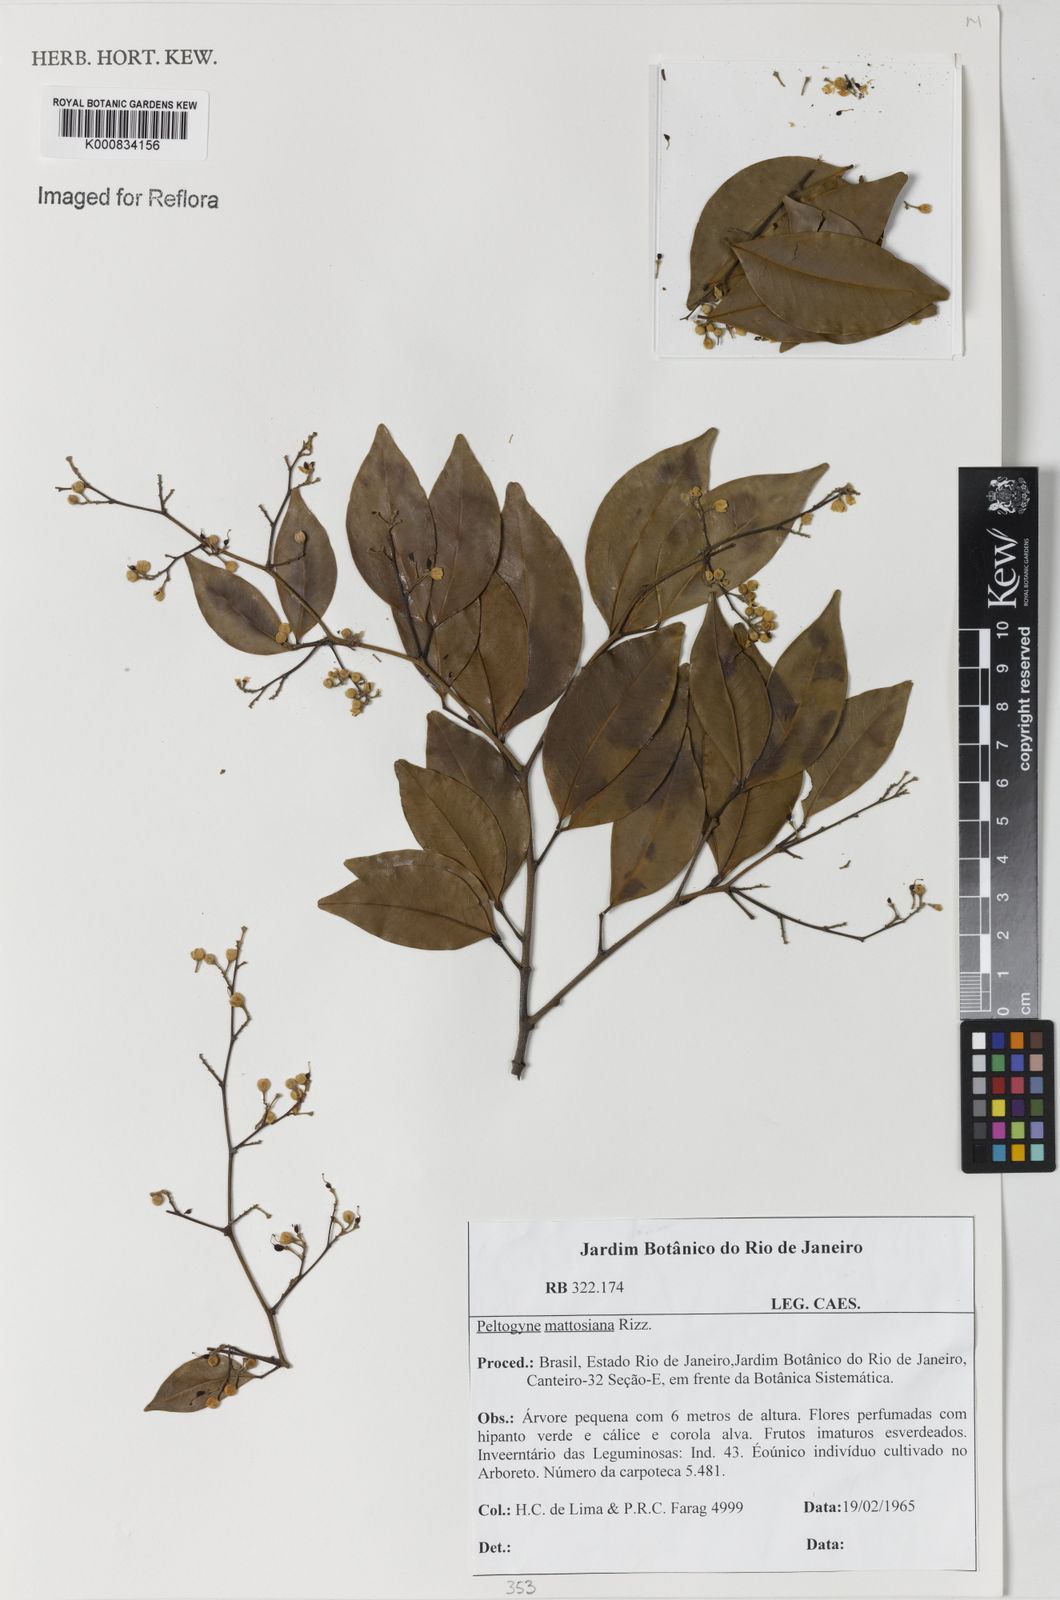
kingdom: Plantae
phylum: Tracheophyta
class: Magnoliopsida
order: Fabales
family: Fabaceae
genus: Peltogyne
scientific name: Peltogyne mattosiana
